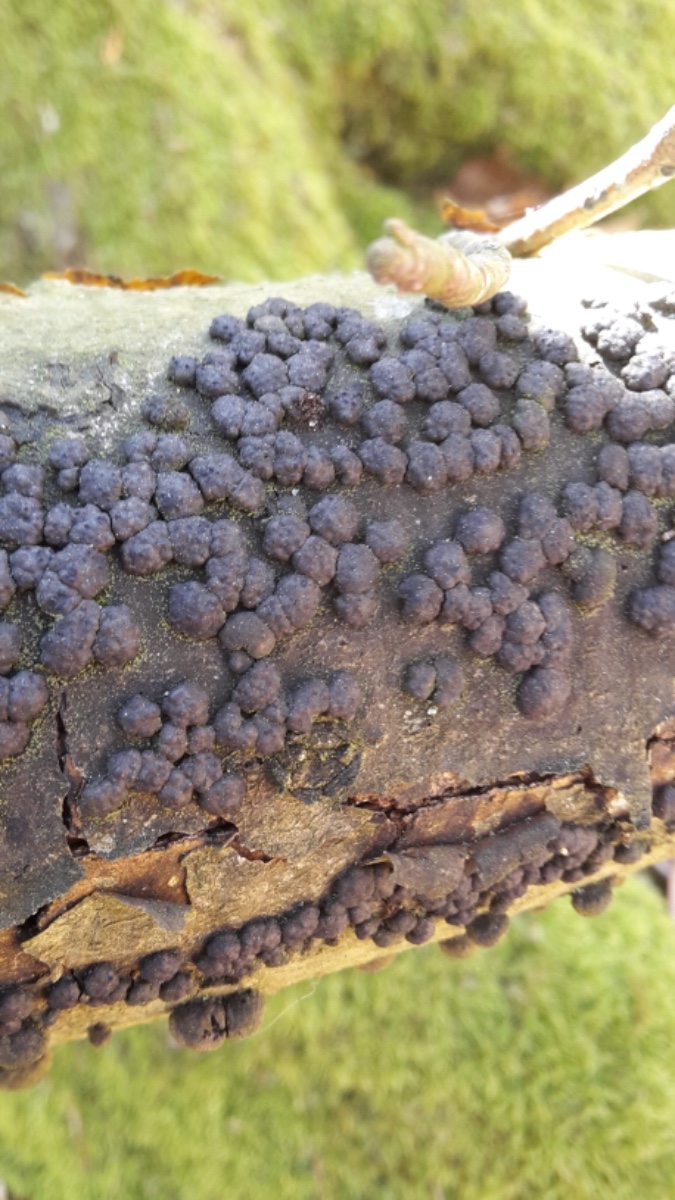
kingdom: Fungi
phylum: Ascomycota
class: Sordariomycetes
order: Xylariales
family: Hypoxylaceae
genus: Jackrogersella
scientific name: Jackrogersella cohaerens
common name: sammenflydende kulbær
